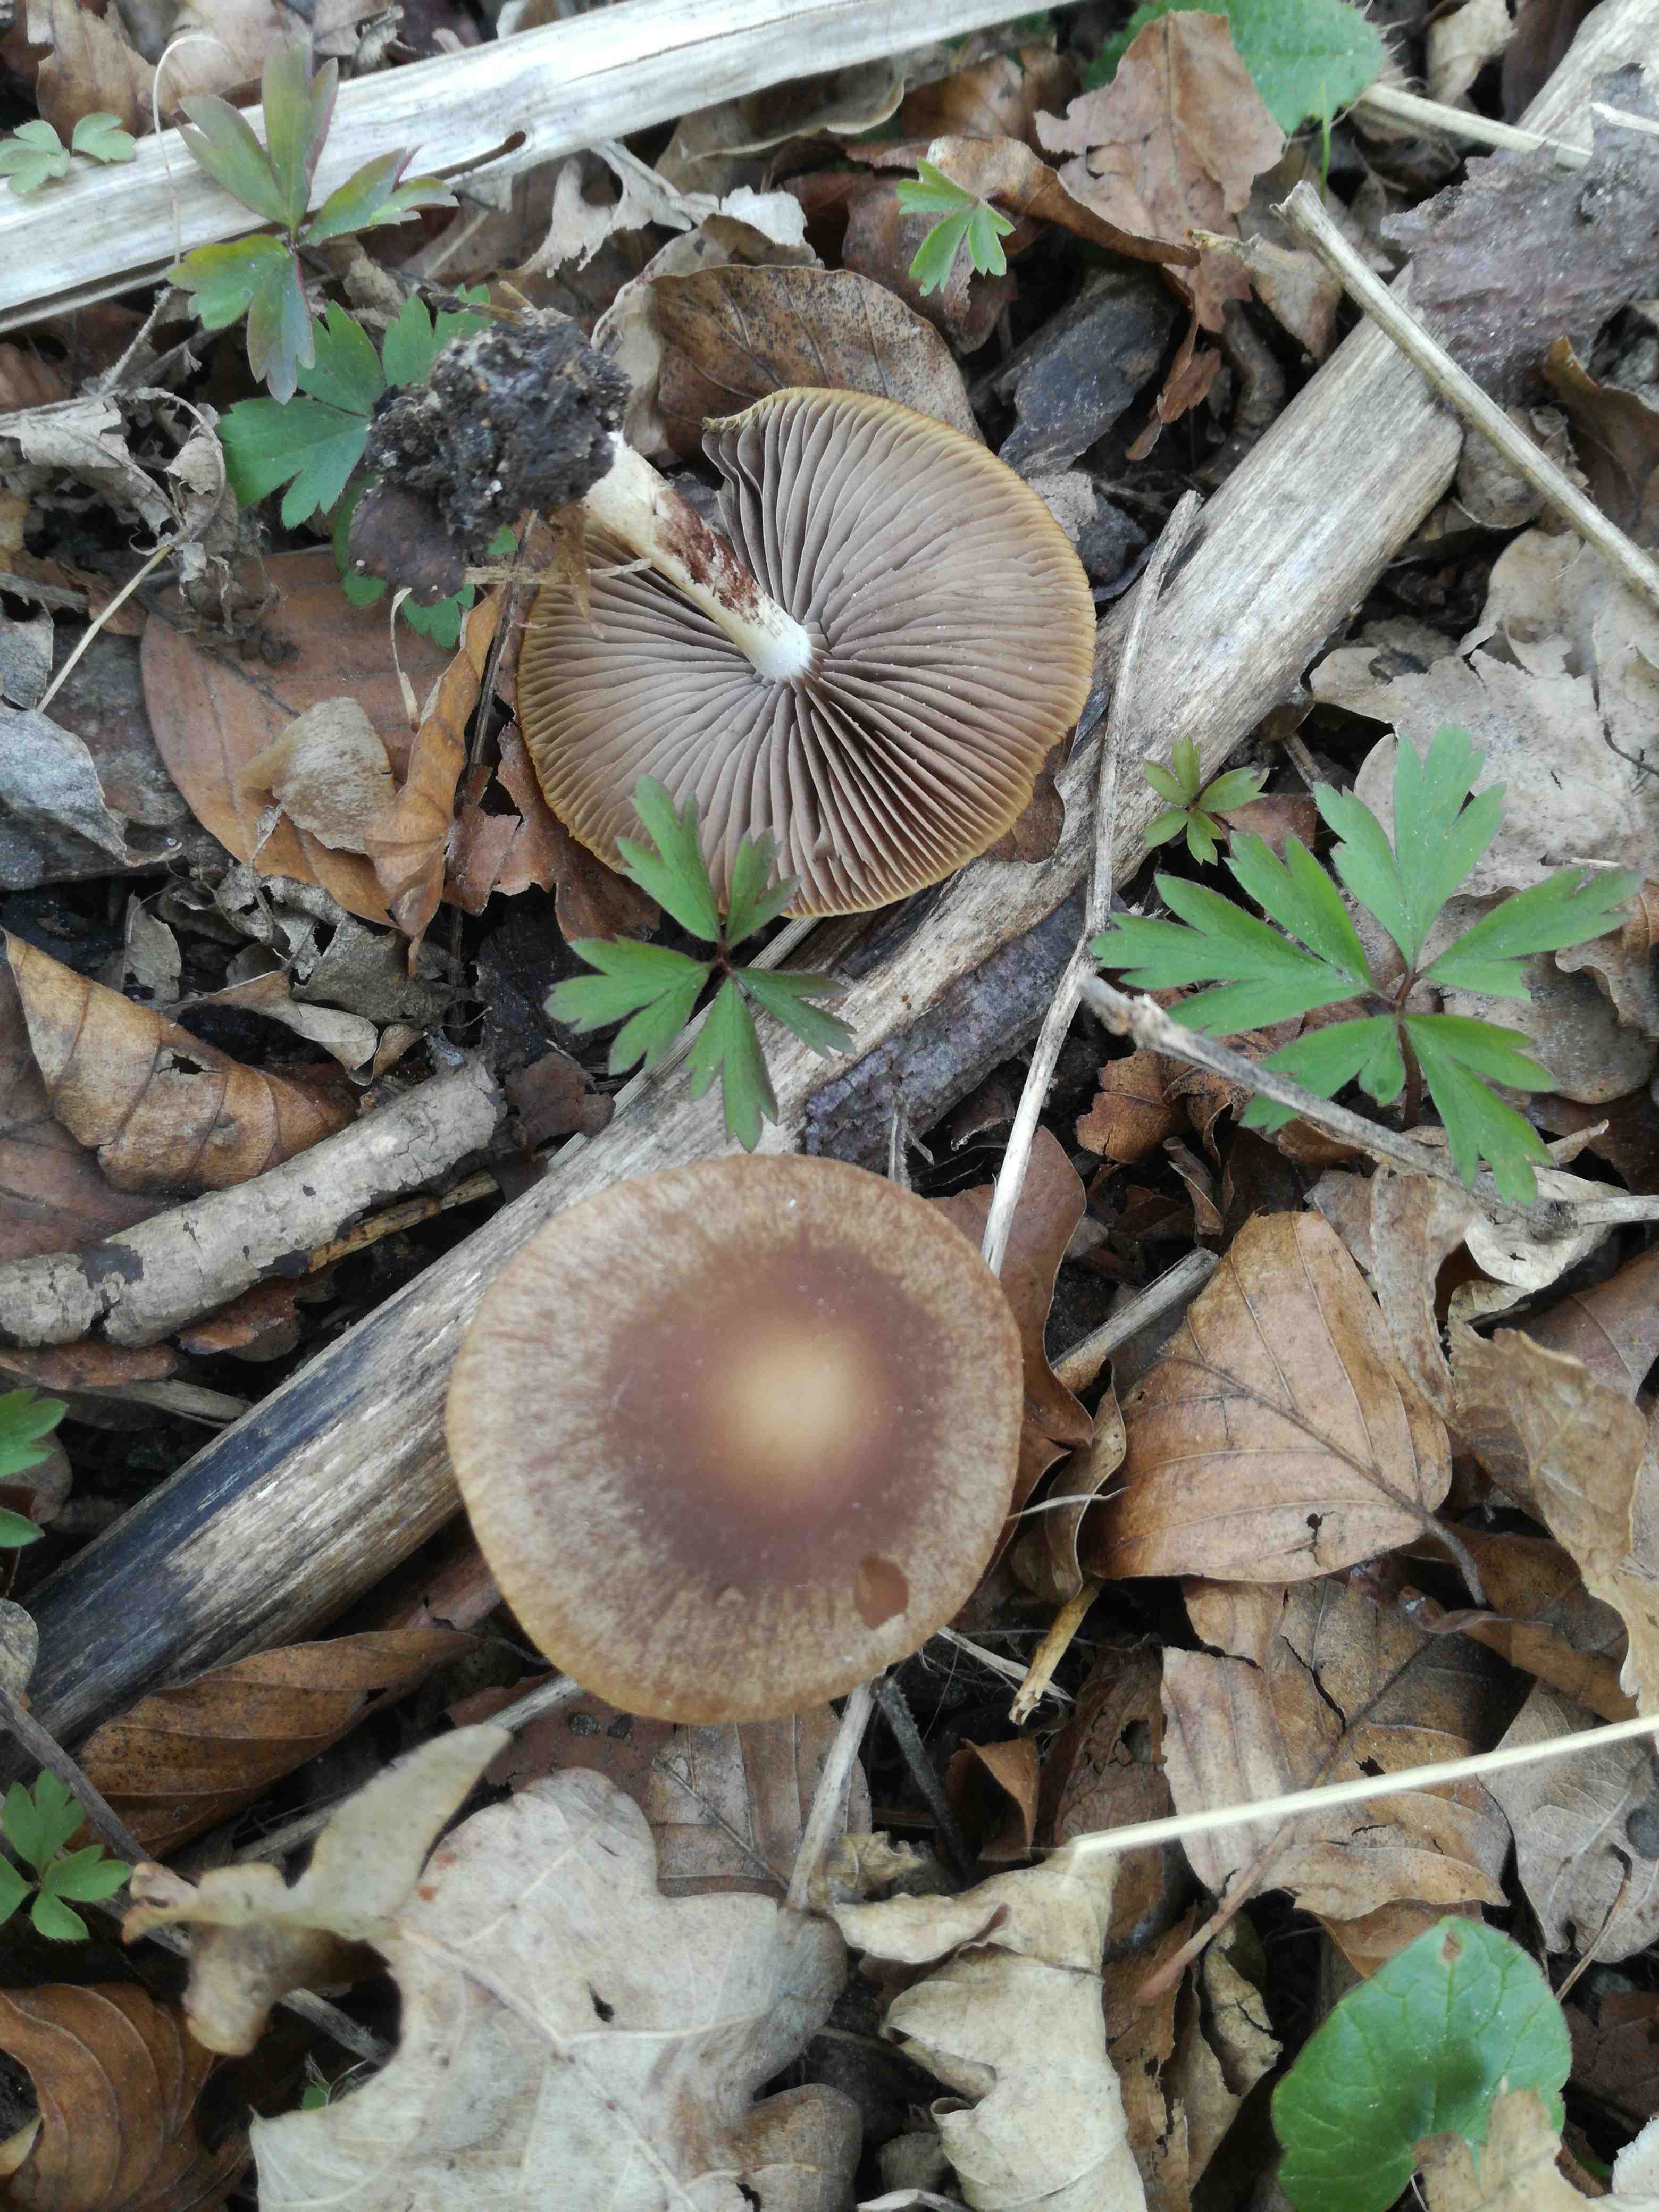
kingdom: Fungi
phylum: Basidiomycota
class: Agaricomycetes
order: Agaricales
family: Psathyrellaceae
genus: Psathyrella
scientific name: Psathyrella
